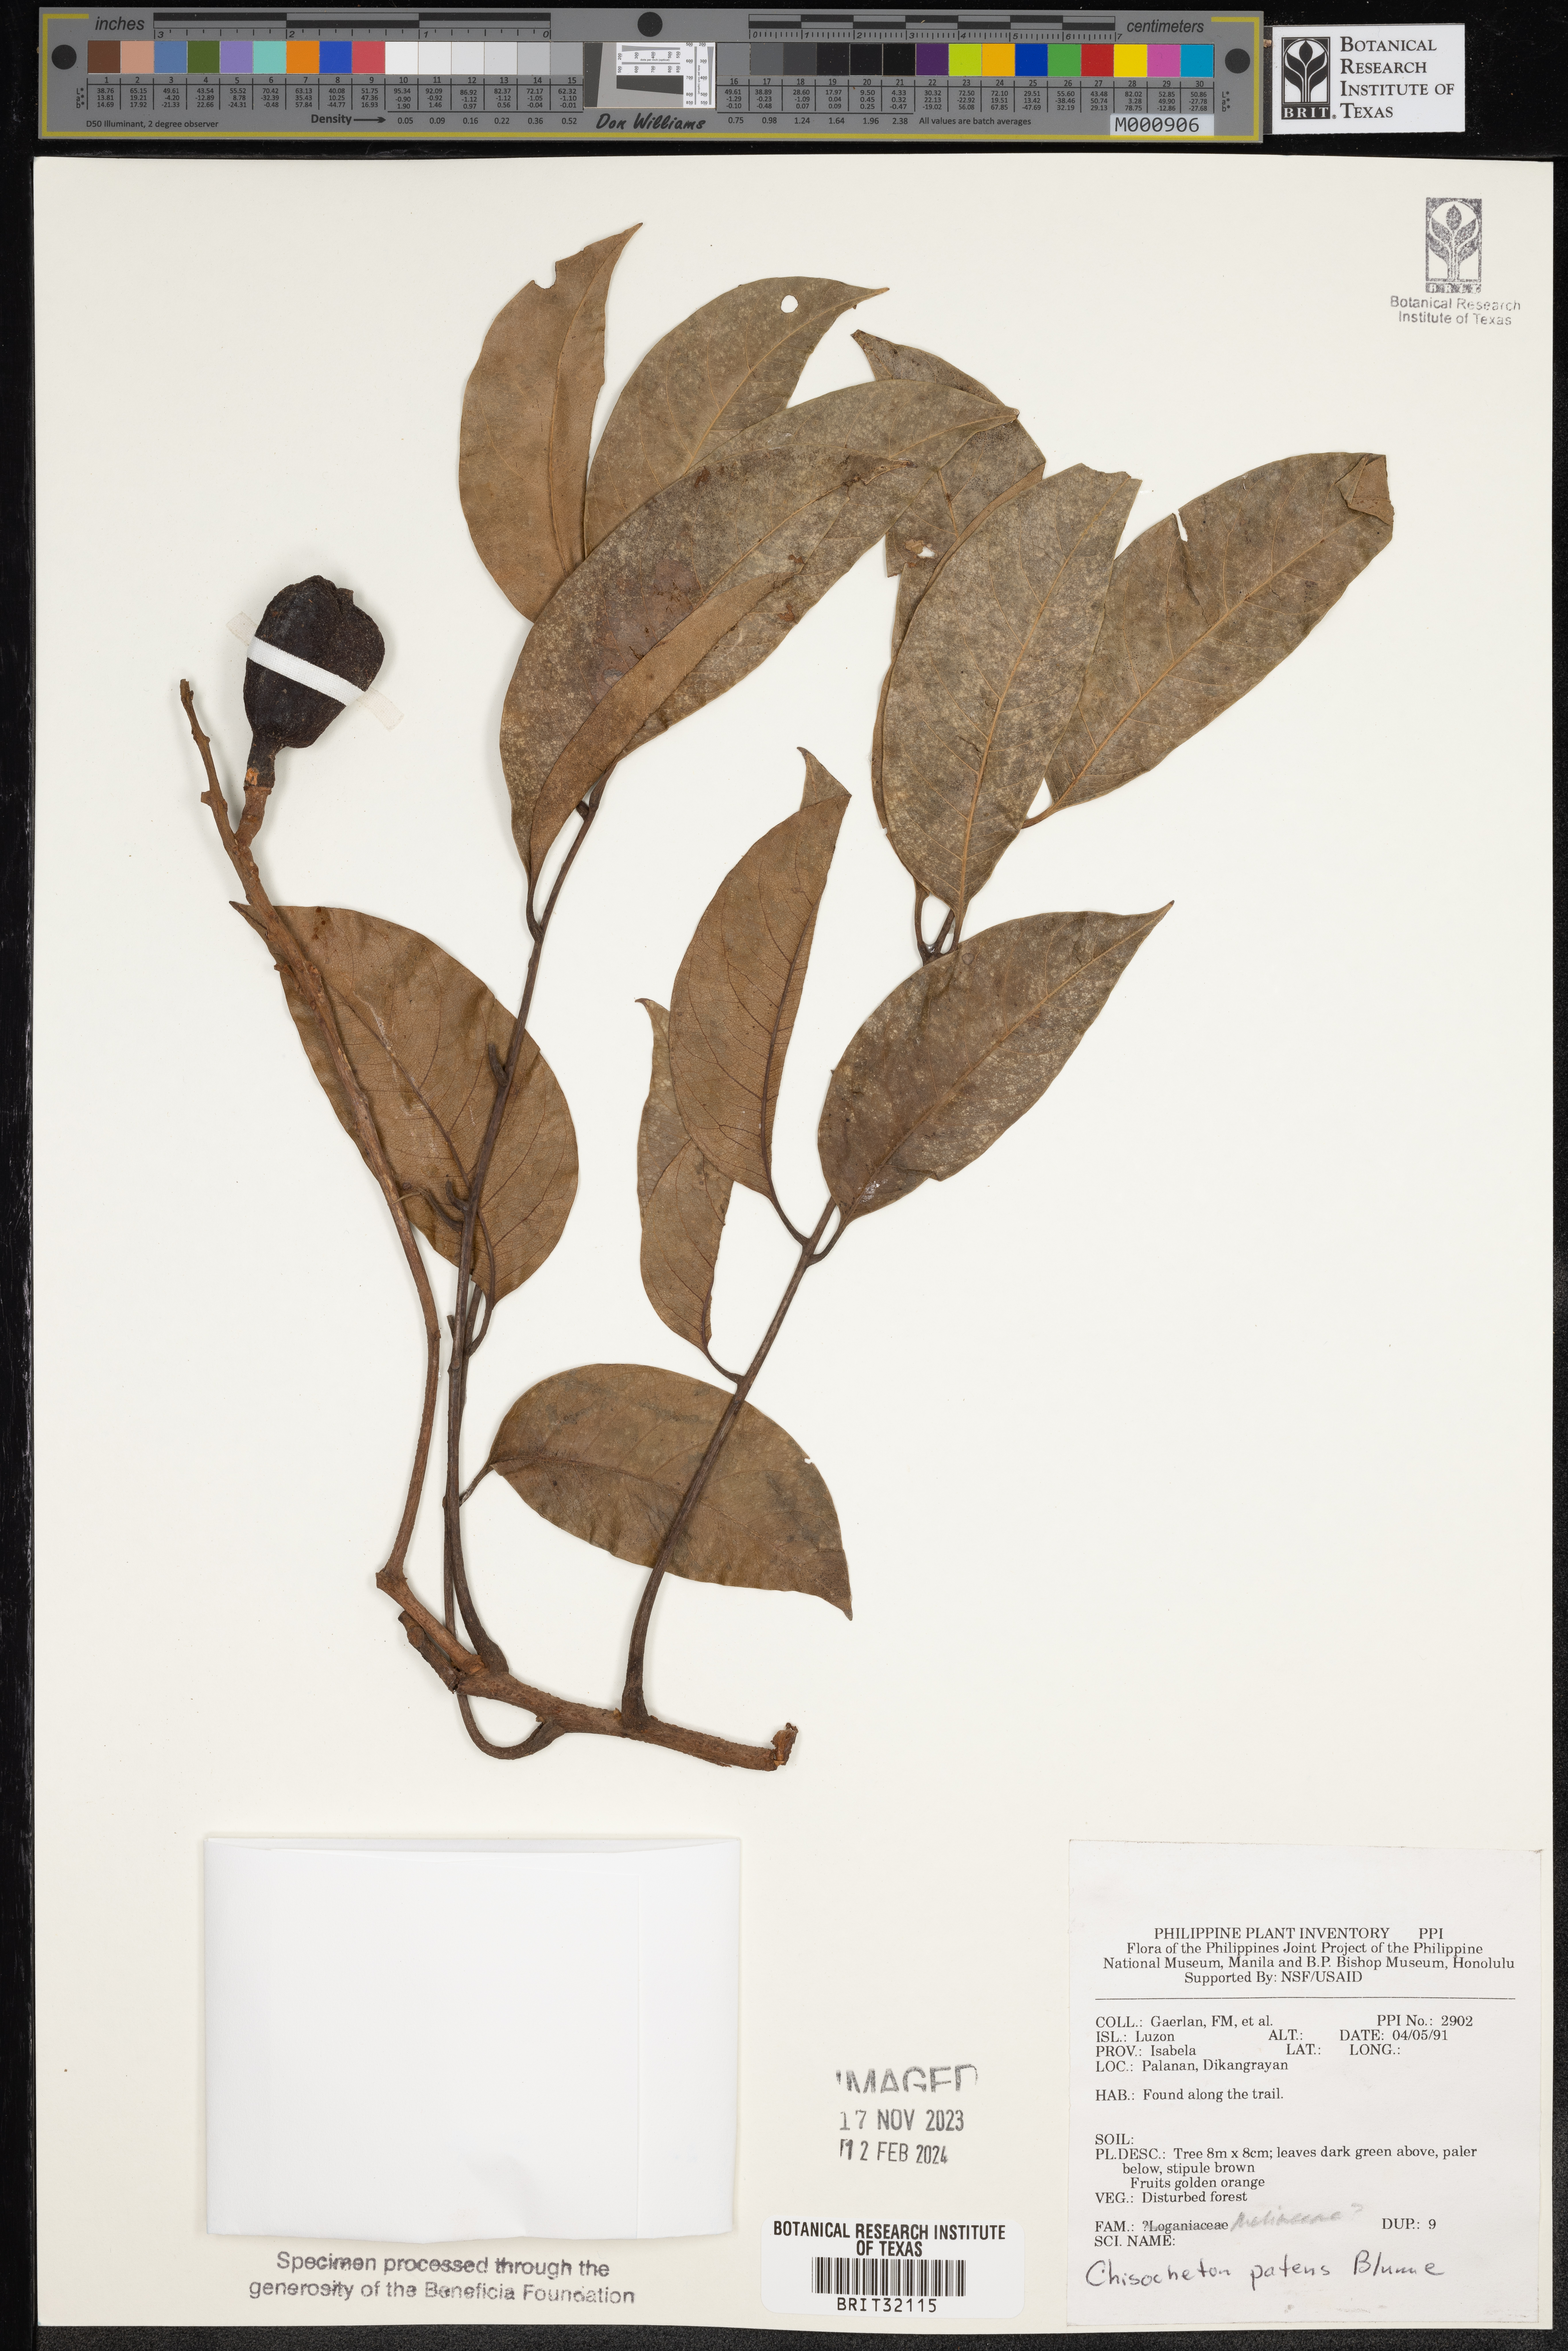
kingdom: Plantae
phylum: Tracheophyta
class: Magnoliopsida
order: Sapindales
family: Meliaceae
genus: Chisocheton
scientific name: Chisocheton patens
